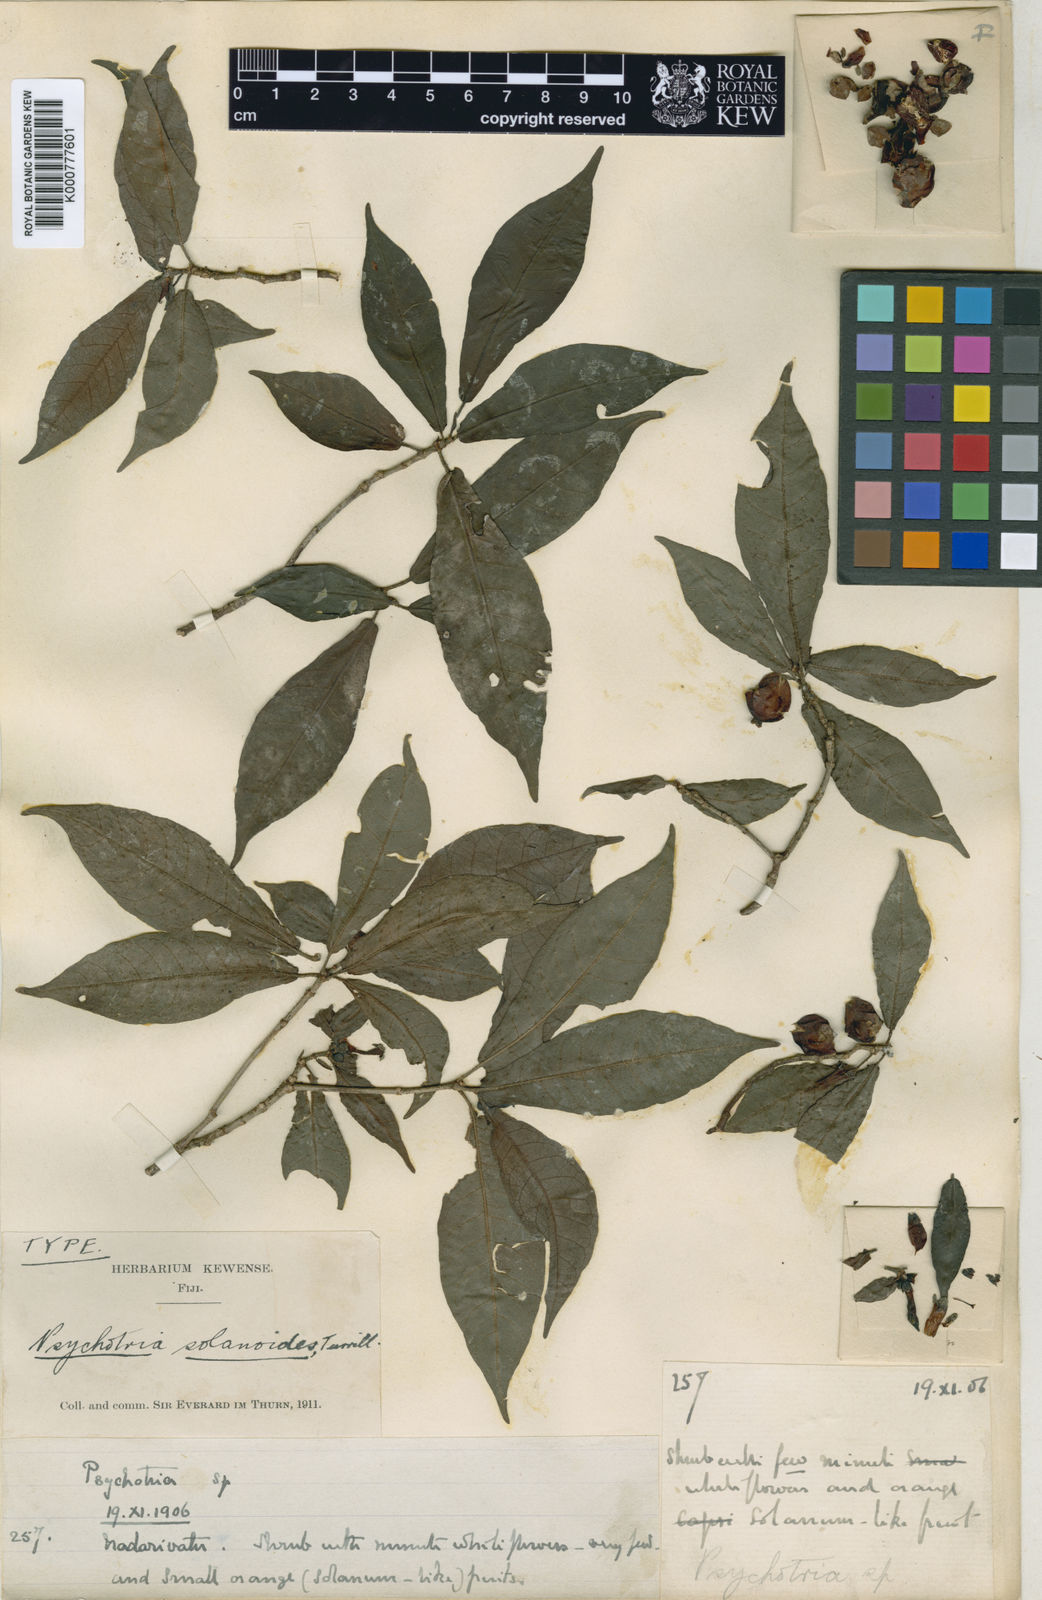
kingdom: Plantae
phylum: Tracheophyta
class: Magnoliopsida
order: Gentianales
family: Rubiaceae
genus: Psychotria
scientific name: Psychotria pickeringii
